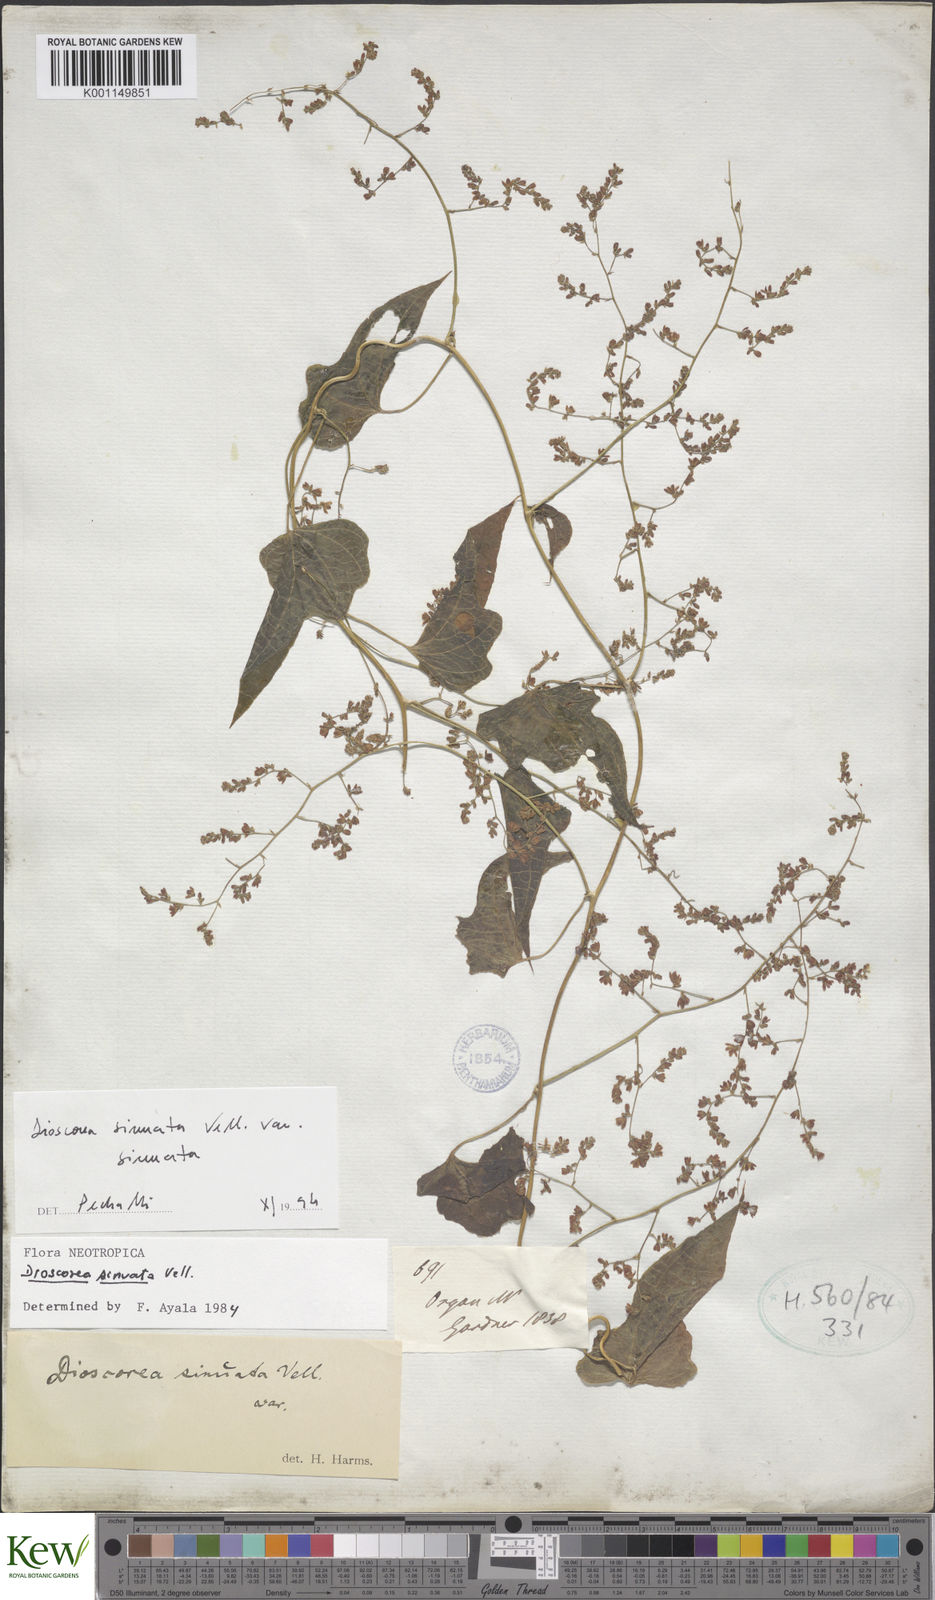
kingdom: Plantae
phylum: Tracheophyta
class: Liliopsida
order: Dioscoreales
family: Dioscoreaceae
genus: Dioscorea
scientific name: Dioscorea sinuata
